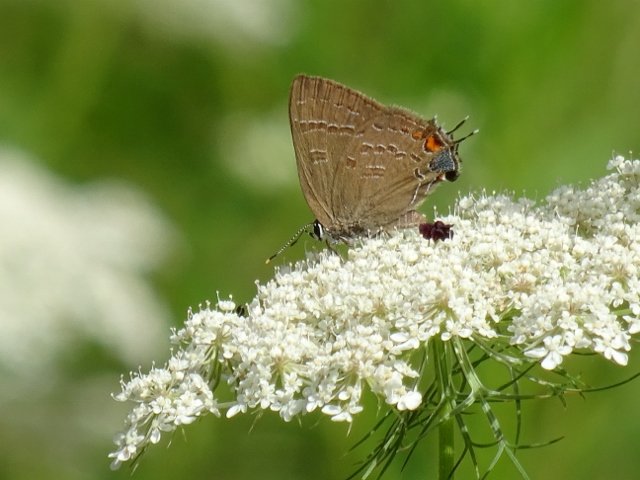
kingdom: Animalia
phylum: Arthropoda
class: Insecta
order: Lepidoptera
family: Lycaenidae
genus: Satyrium
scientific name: Satyrium calanus
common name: Banded Hairstreak
